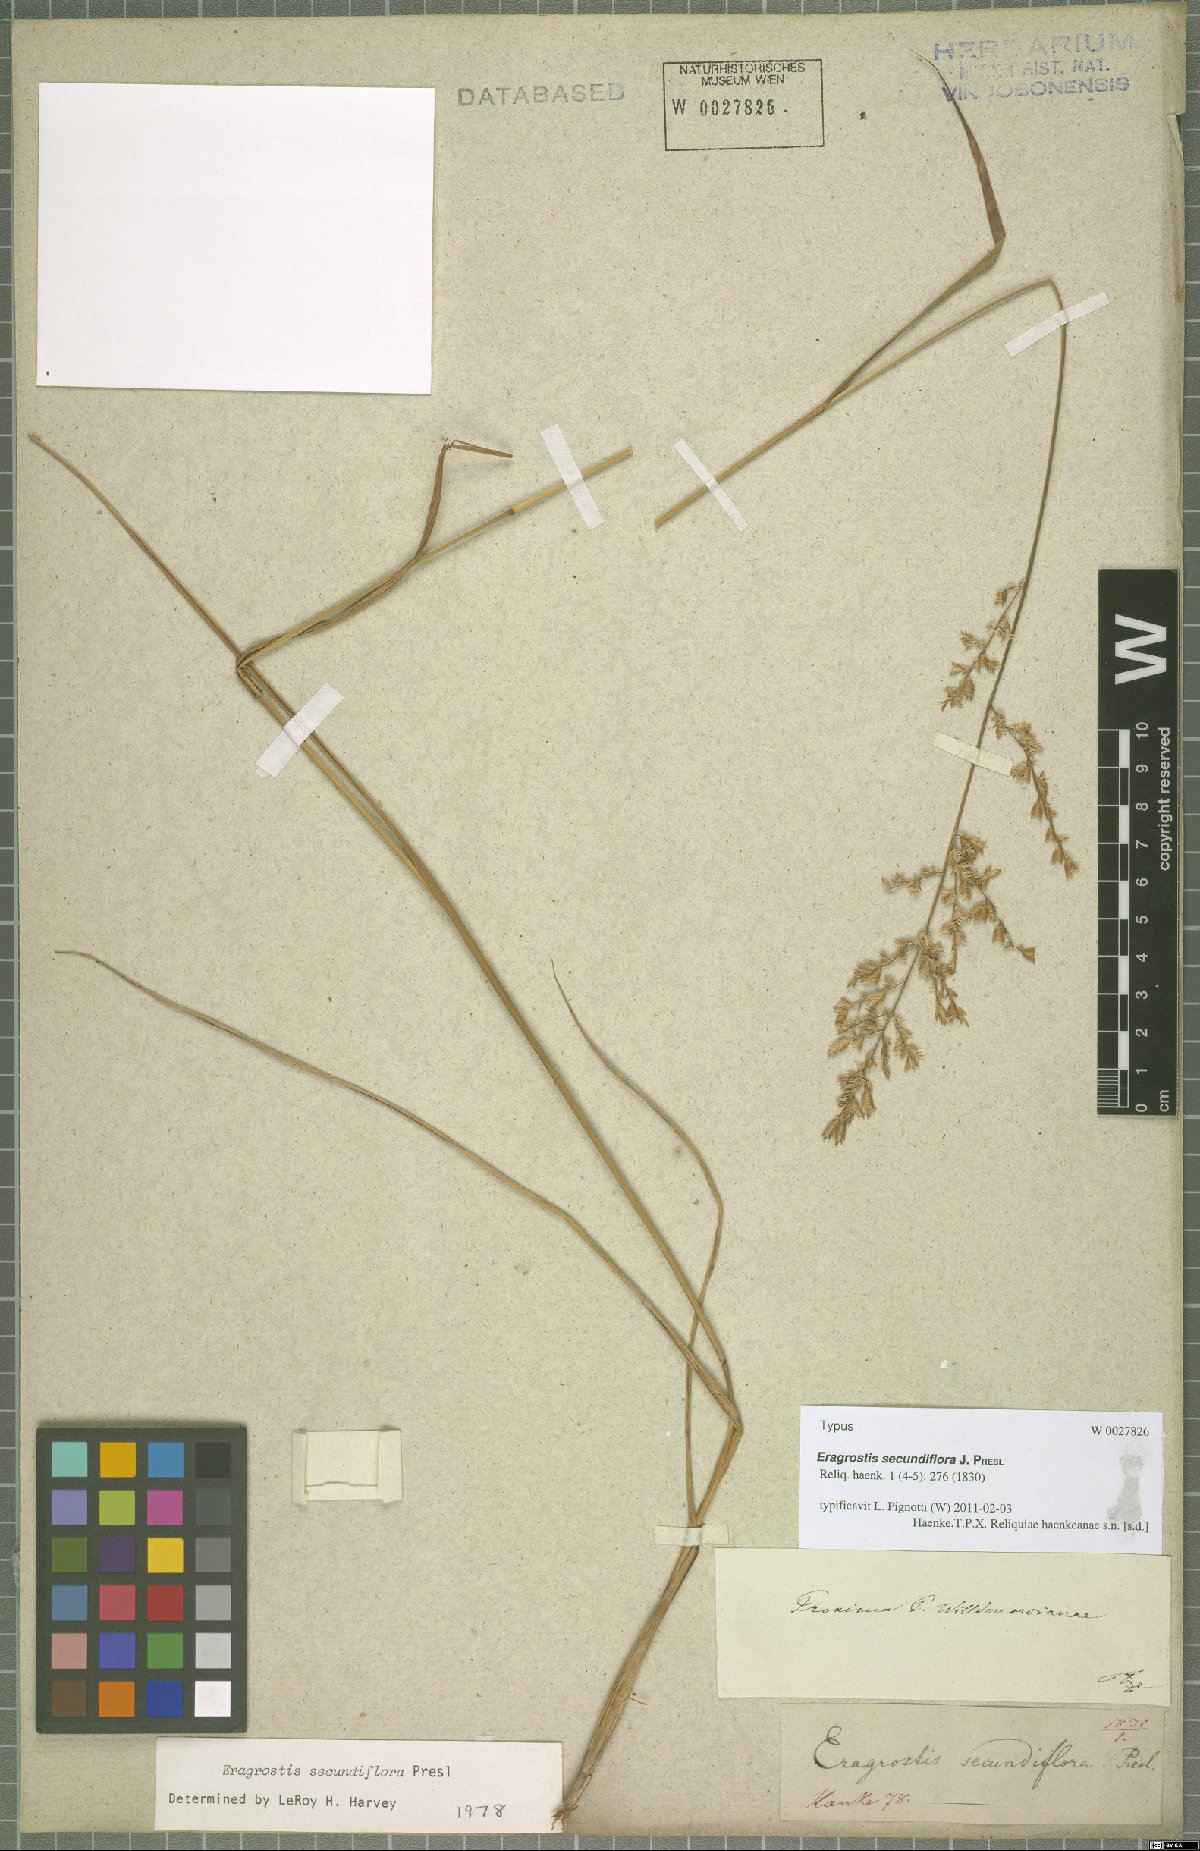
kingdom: Plantae
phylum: Tracheophyta
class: Liliopsida
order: Poales
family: Poaceae
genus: Eragrostis
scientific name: Eragrostis secundiflora
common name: Red love grass
